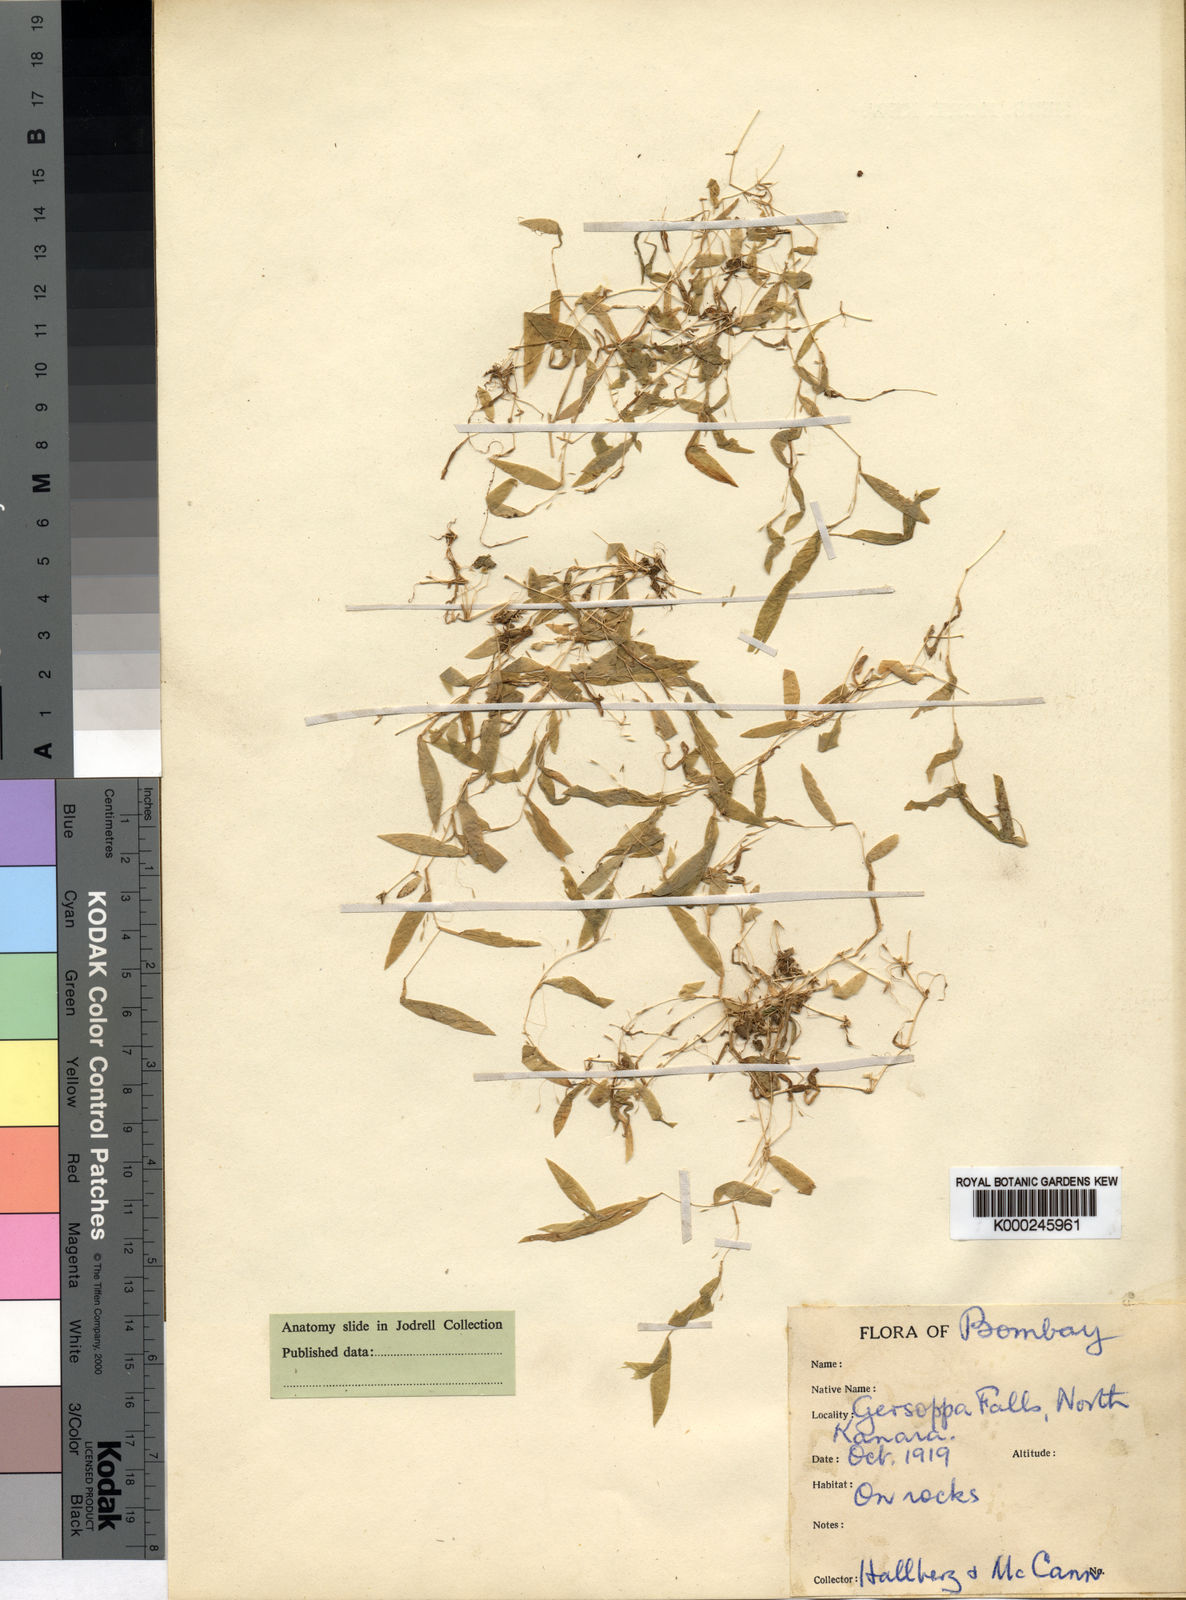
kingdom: Plantae
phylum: Tracheophyta
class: Liliopsida
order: Poales
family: Poaceae
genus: Hubbardia
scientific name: Hubbardia heptaneuron
